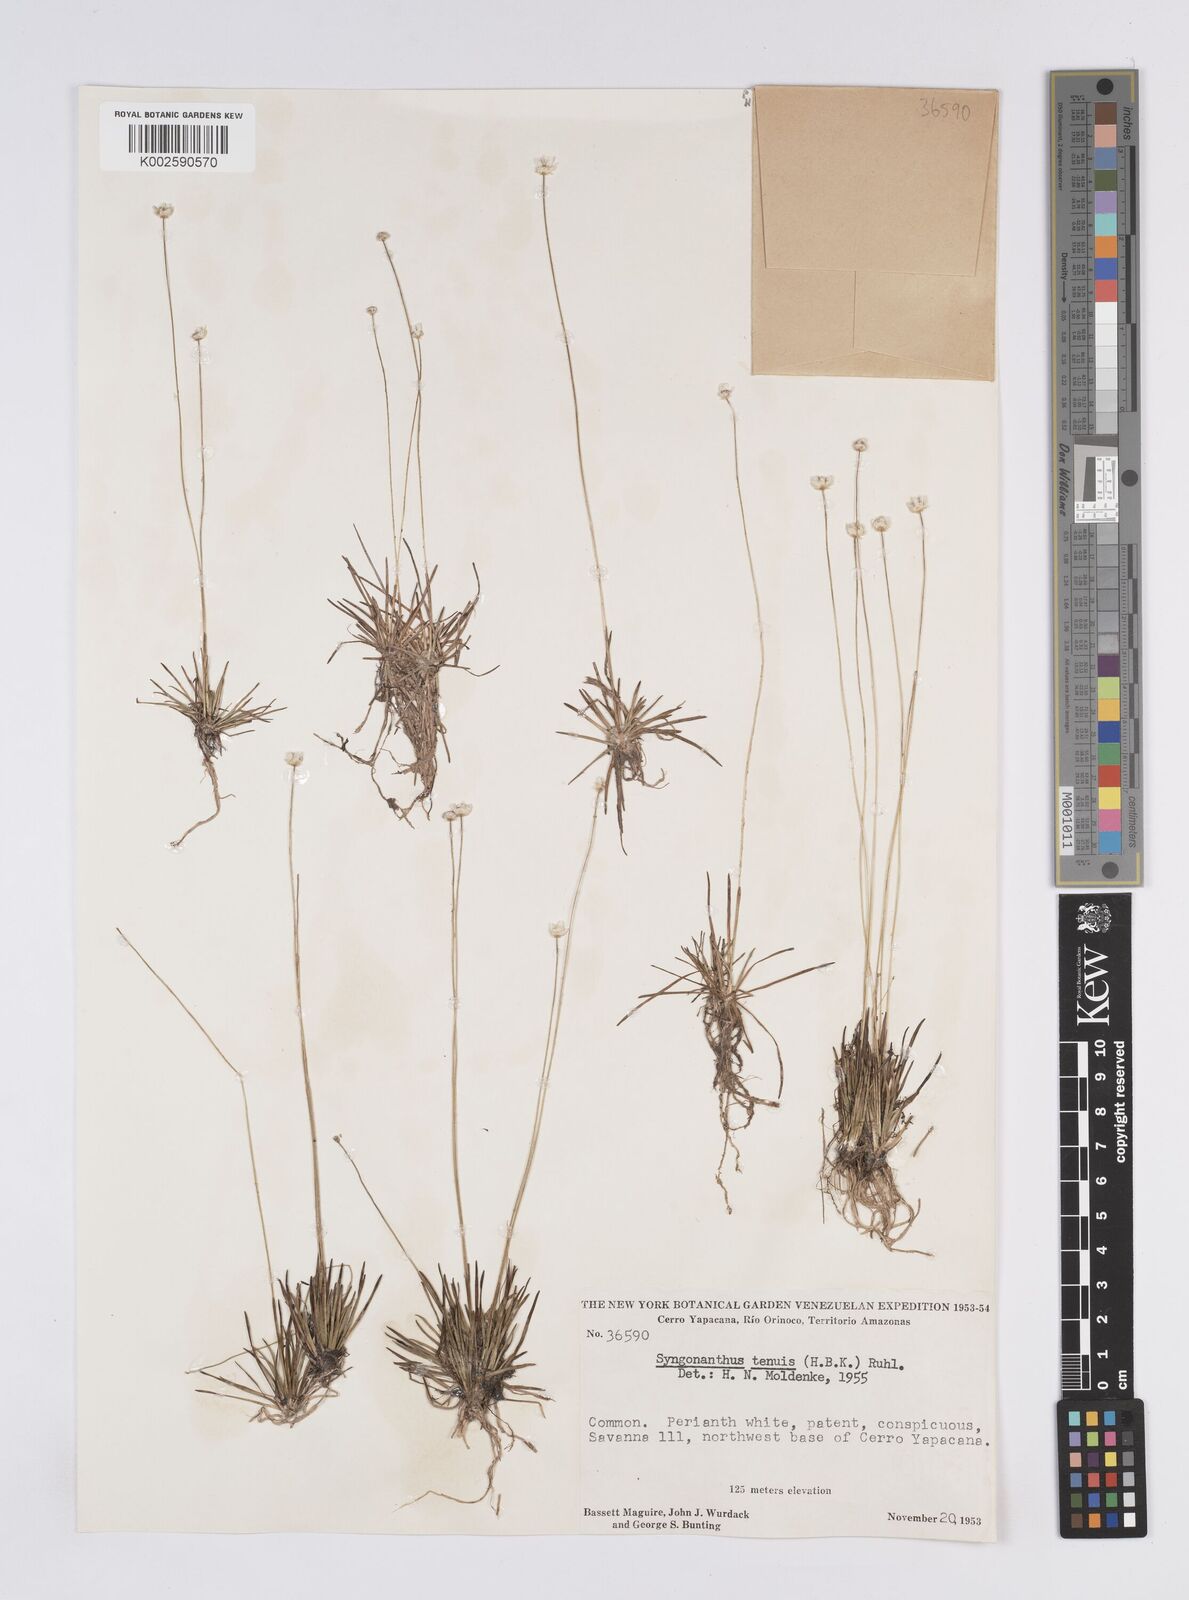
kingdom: Plantae
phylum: Tracheophyta
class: Liliopsida
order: Poales
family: Eriocaulaceae
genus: Syngonanthus
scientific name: Syngonanthus tenuis
